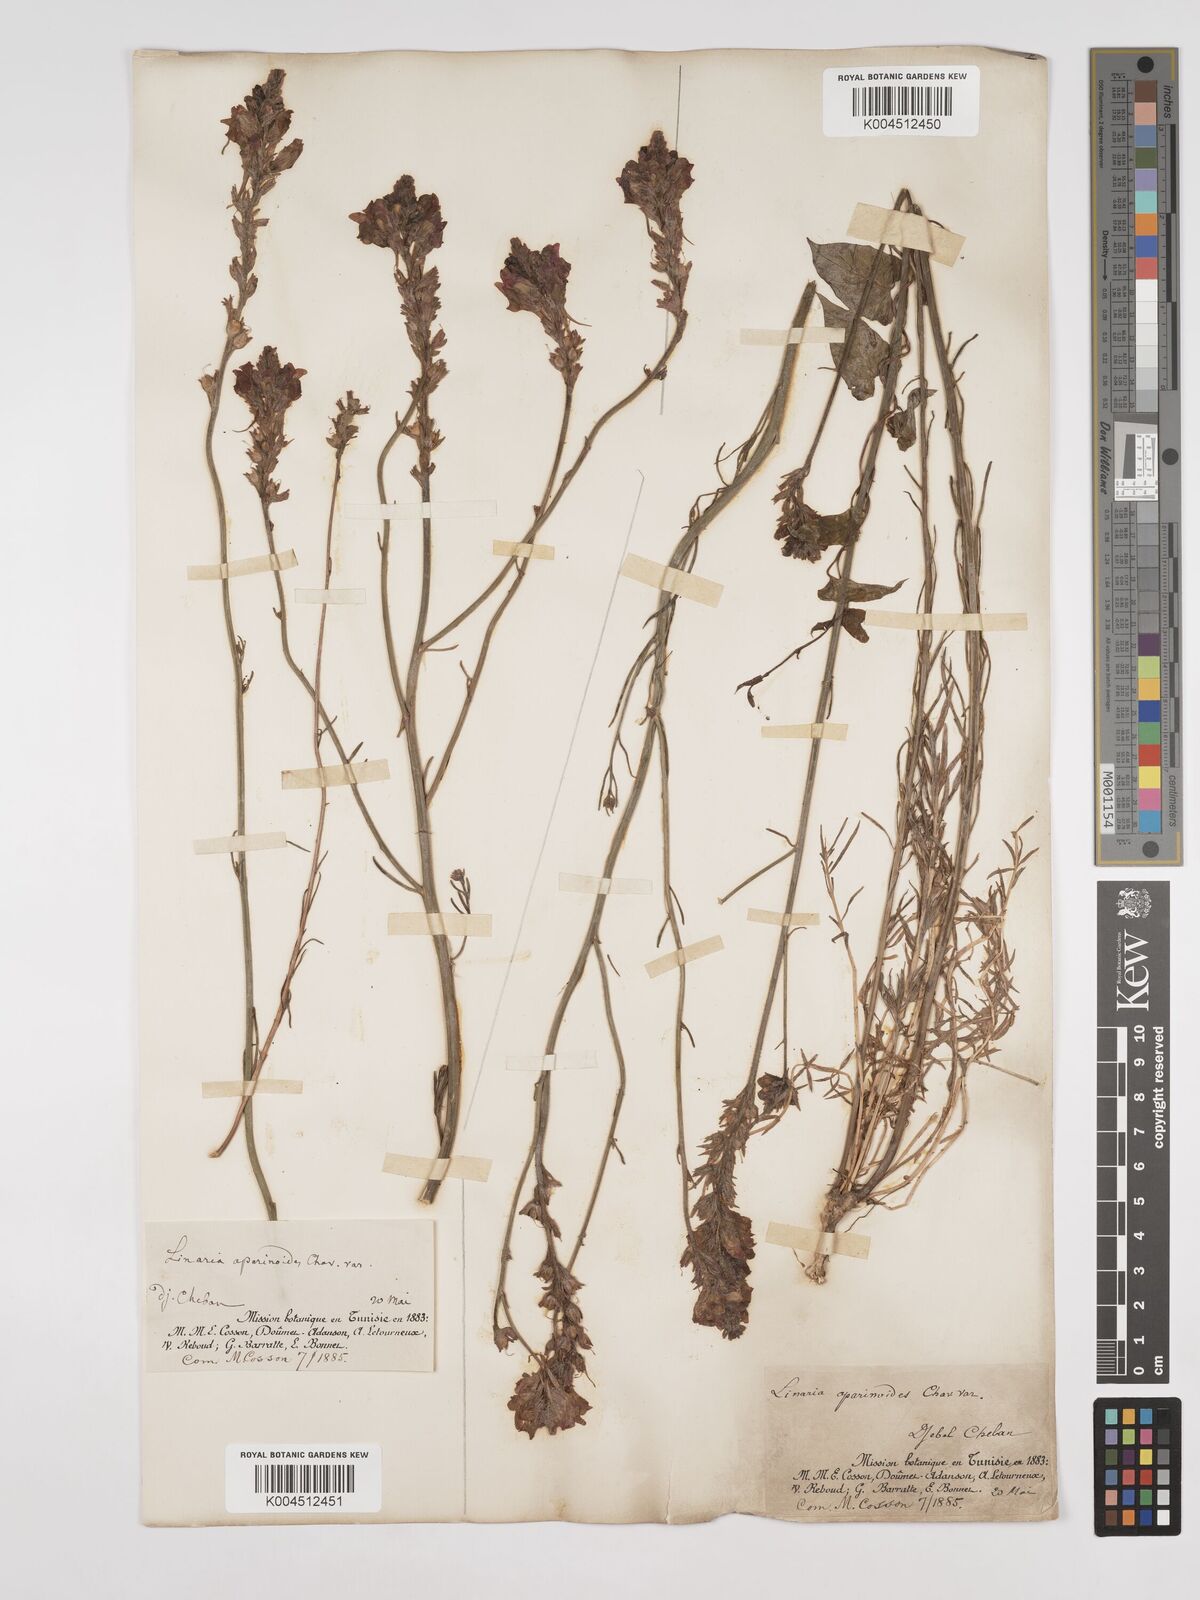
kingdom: Plantae
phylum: Tracheophyta
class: Magnoliopsida
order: Lamiales
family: Plantaginaceae
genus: Linaria
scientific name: Linaria multicaulis
